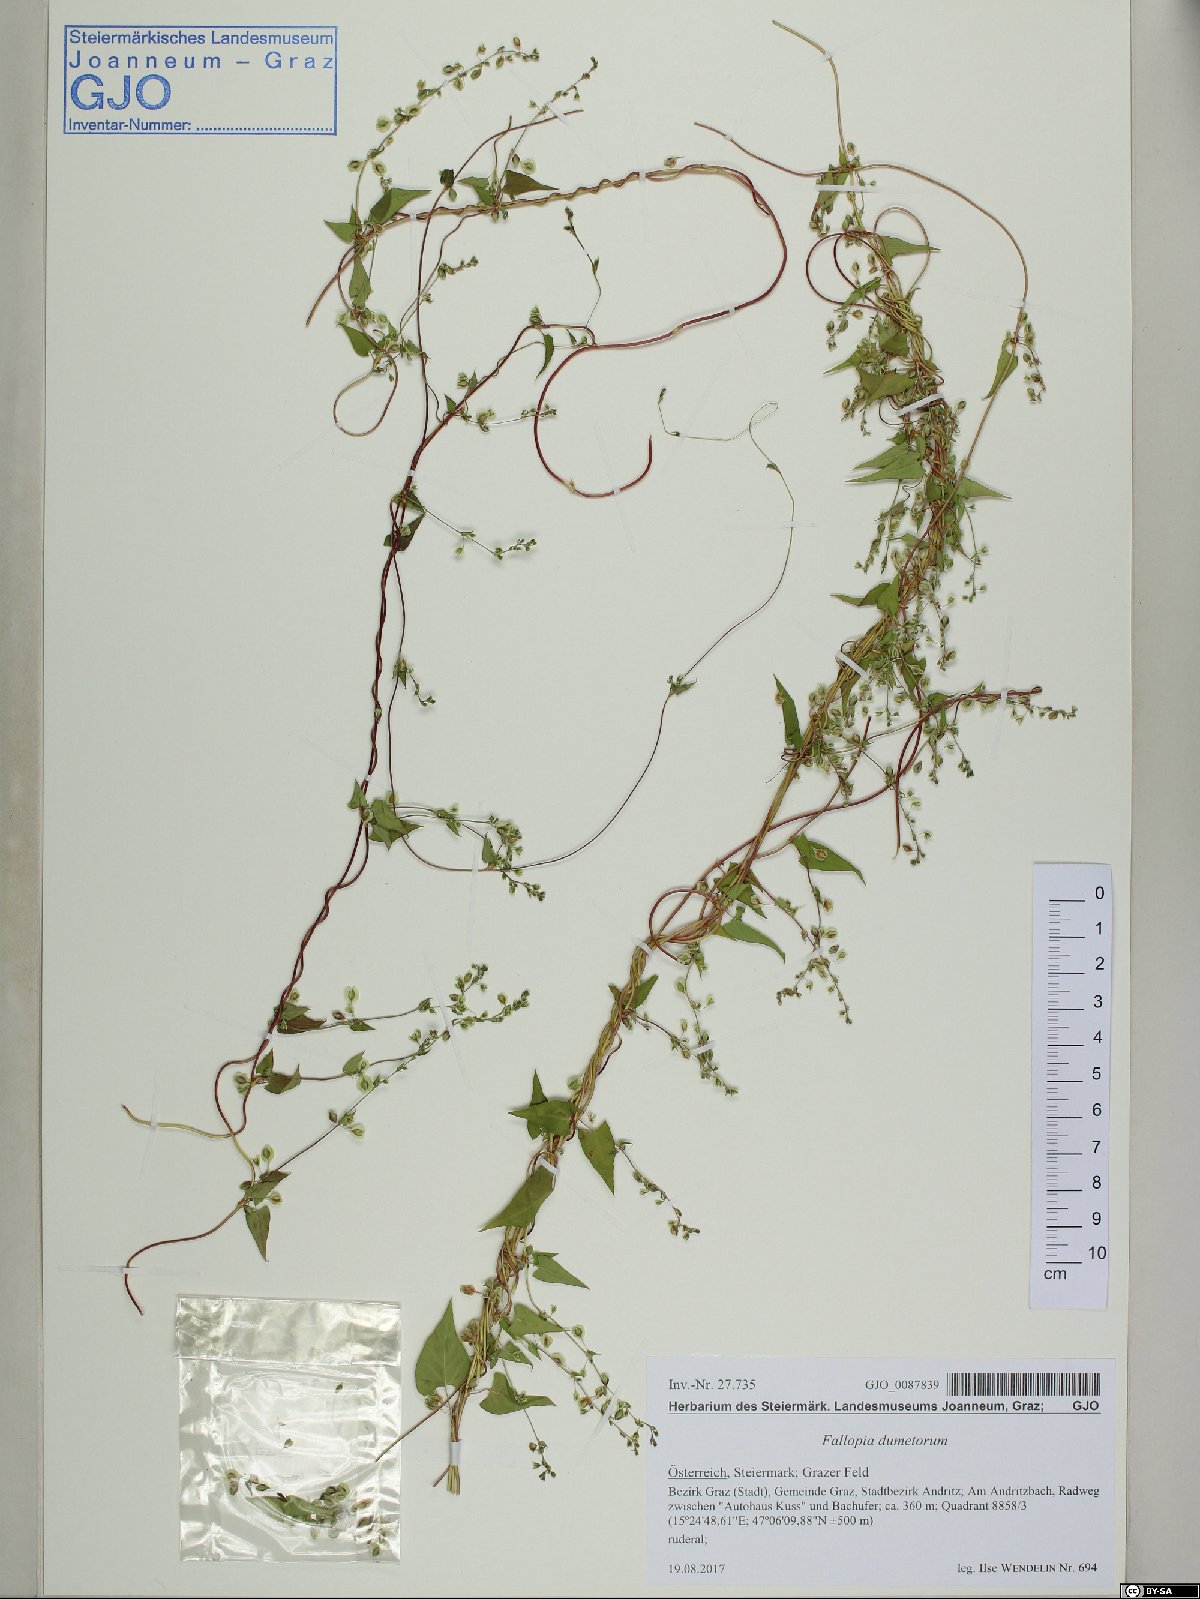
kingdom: Plantae
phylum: Tracheophyta
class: Magnoliopsida
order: Caryophyllales
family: Polygonaceae
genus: Fallopia
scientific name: Fallopia dumetorum
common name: Copse-bindweed
